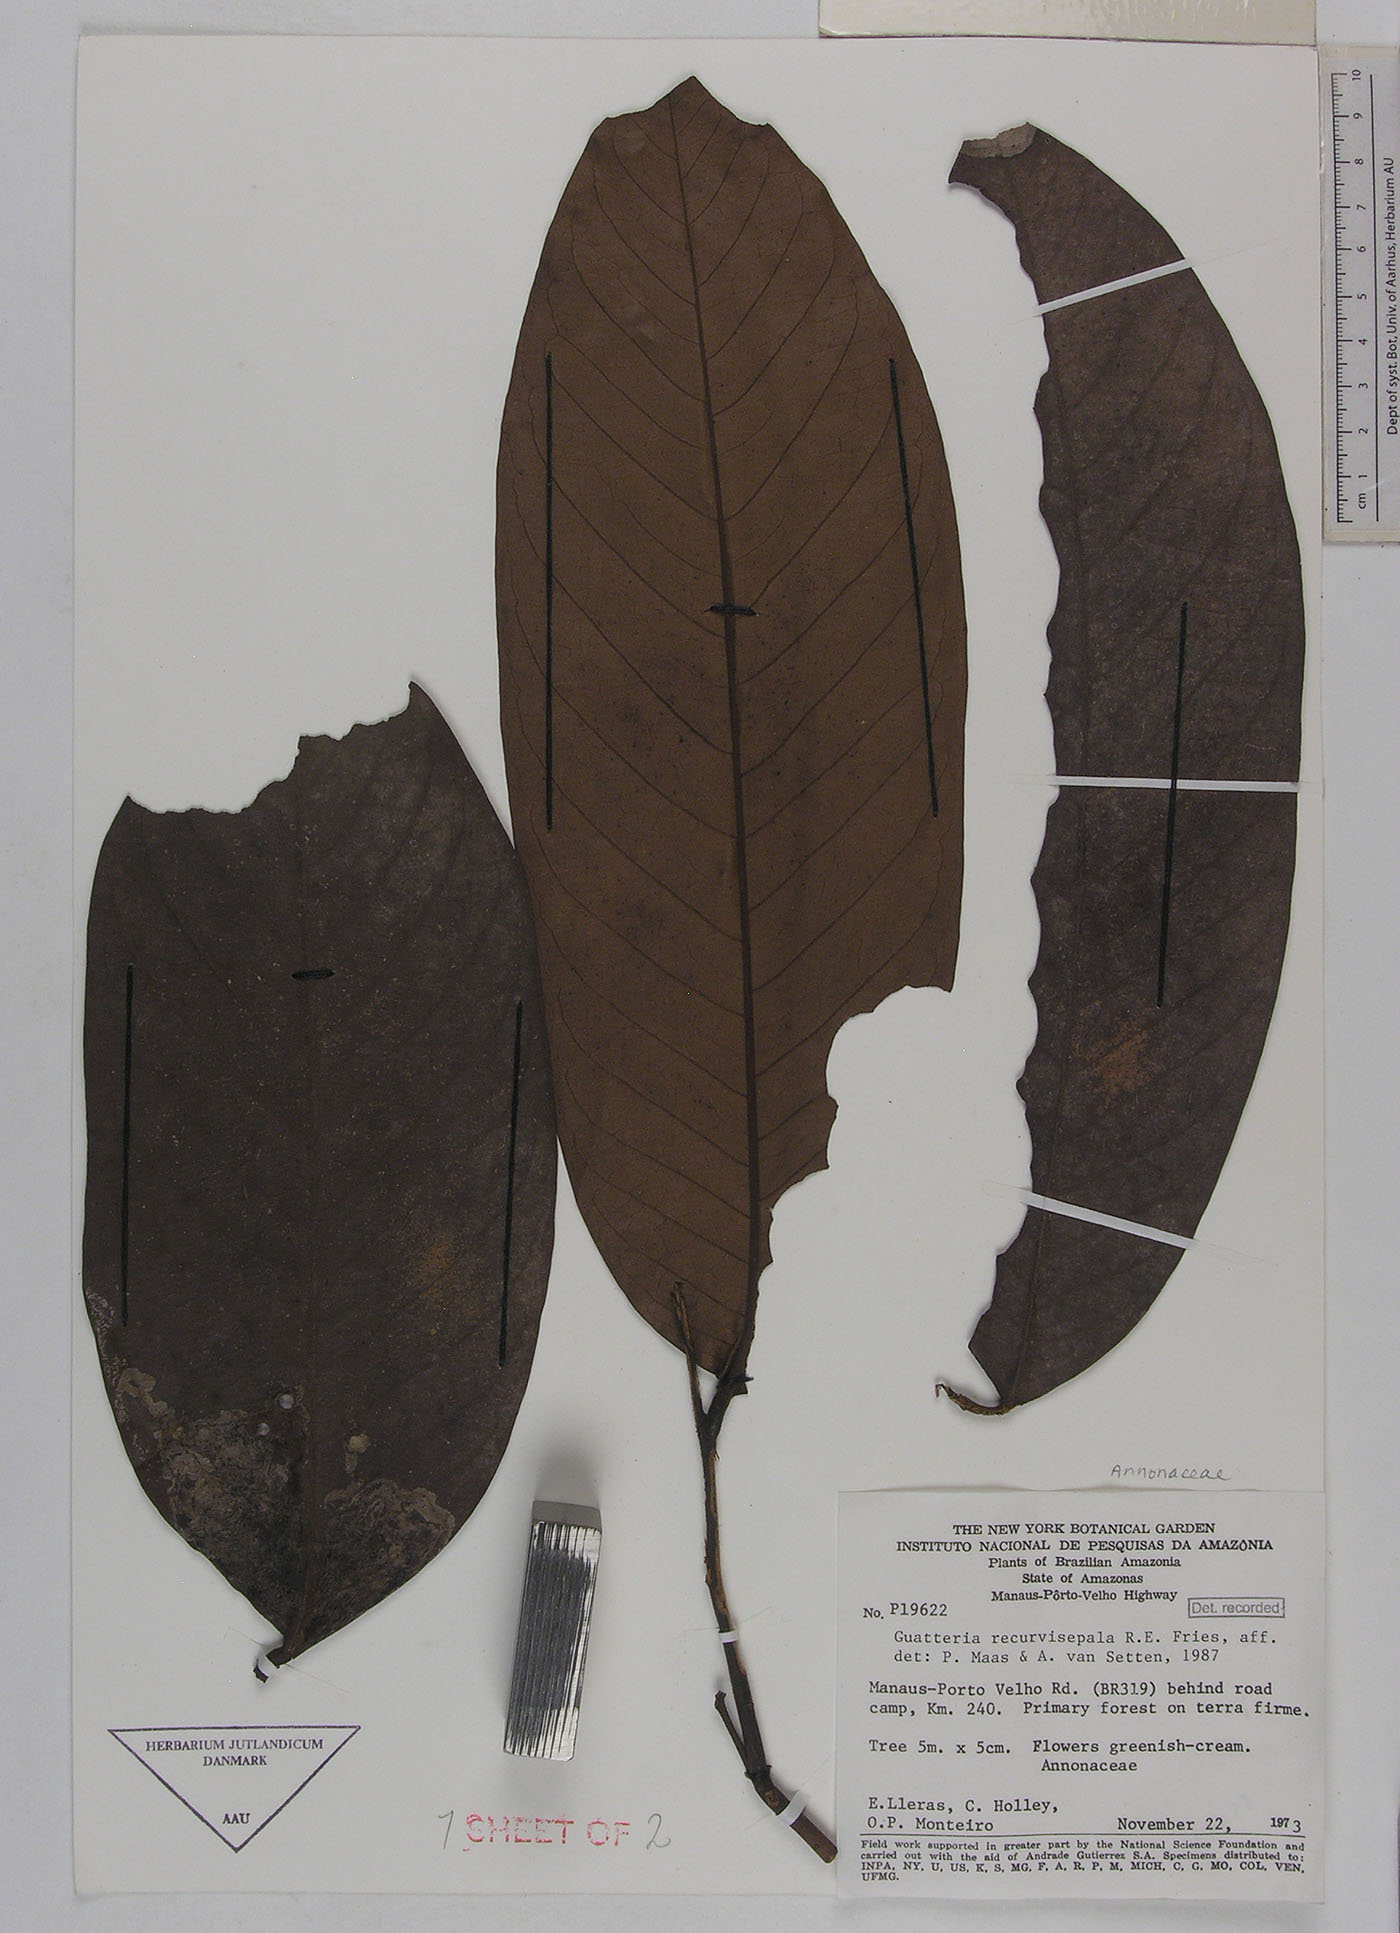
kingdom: Plantae
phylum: Tracheophyta
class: Magnoliopsida
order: Magnoliales
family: Annonaceae
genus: Guatteria
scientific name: Guatteria blepharophylla
